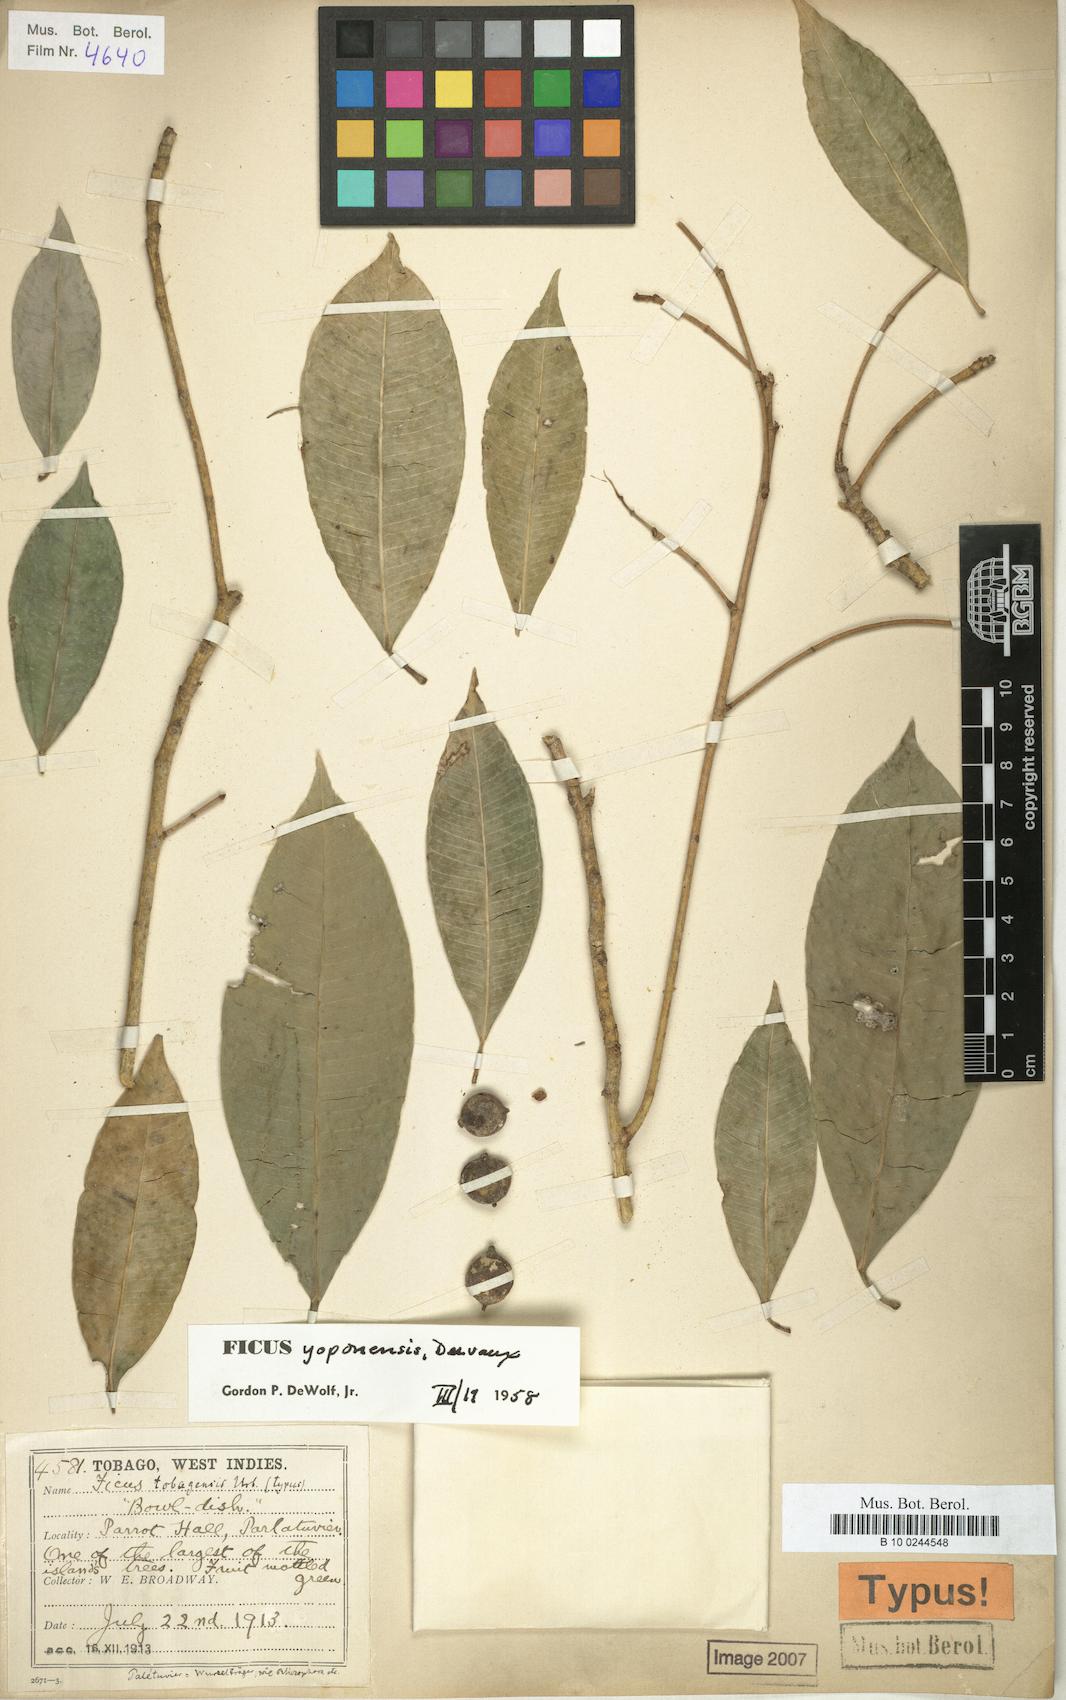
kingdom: Plantae
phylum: Tracheophyta
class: Magnoliopsida
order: Rosales
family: Moraceae
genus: Ficus
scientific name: Ficus yoponensis
